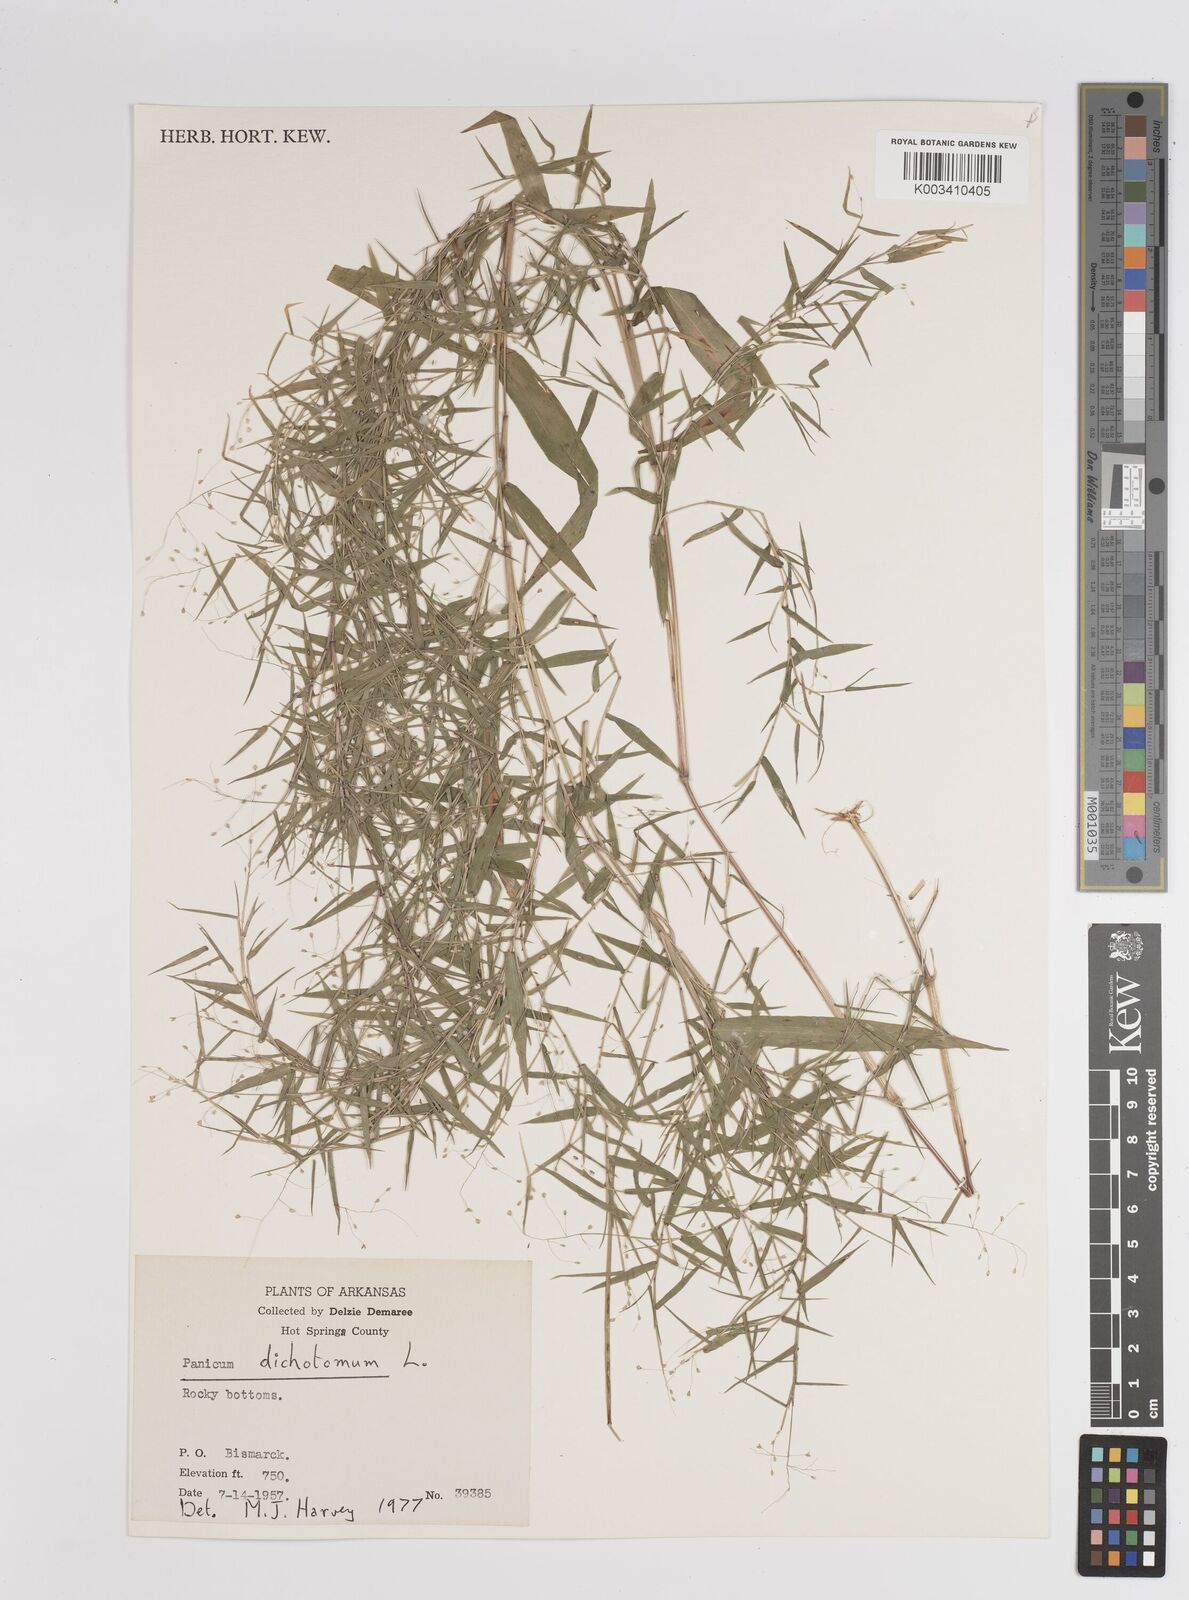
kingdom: Plantae
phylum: Tracheophyta
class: Liliopsida
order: Poales
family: Poaceae
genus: Dichanthelium
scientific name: Dichanthelium dichotomum
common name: Cypress panicgrass
